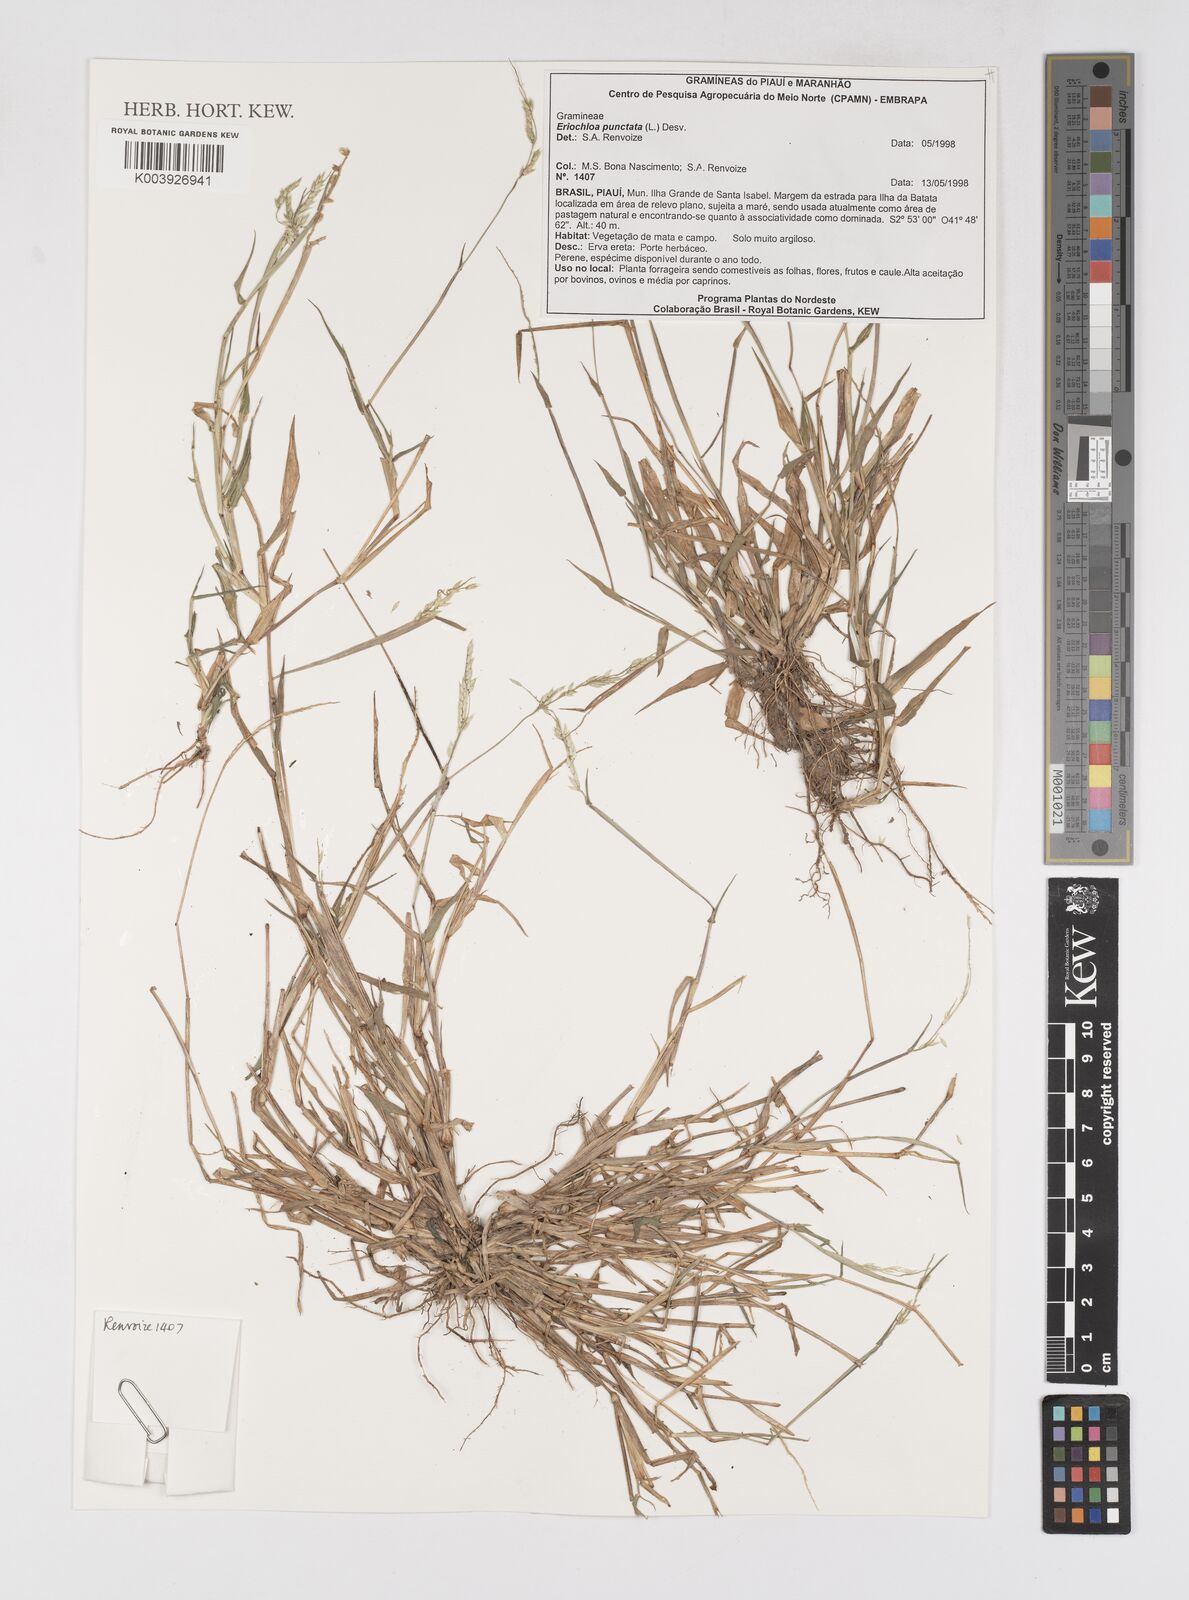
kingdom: Plantae
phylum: Tracheophyta
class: Liliopsida
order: Poales
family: Poaceae
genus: Eriochloa
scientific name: Eriochloa punctata
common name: Louisiana cupgrass
